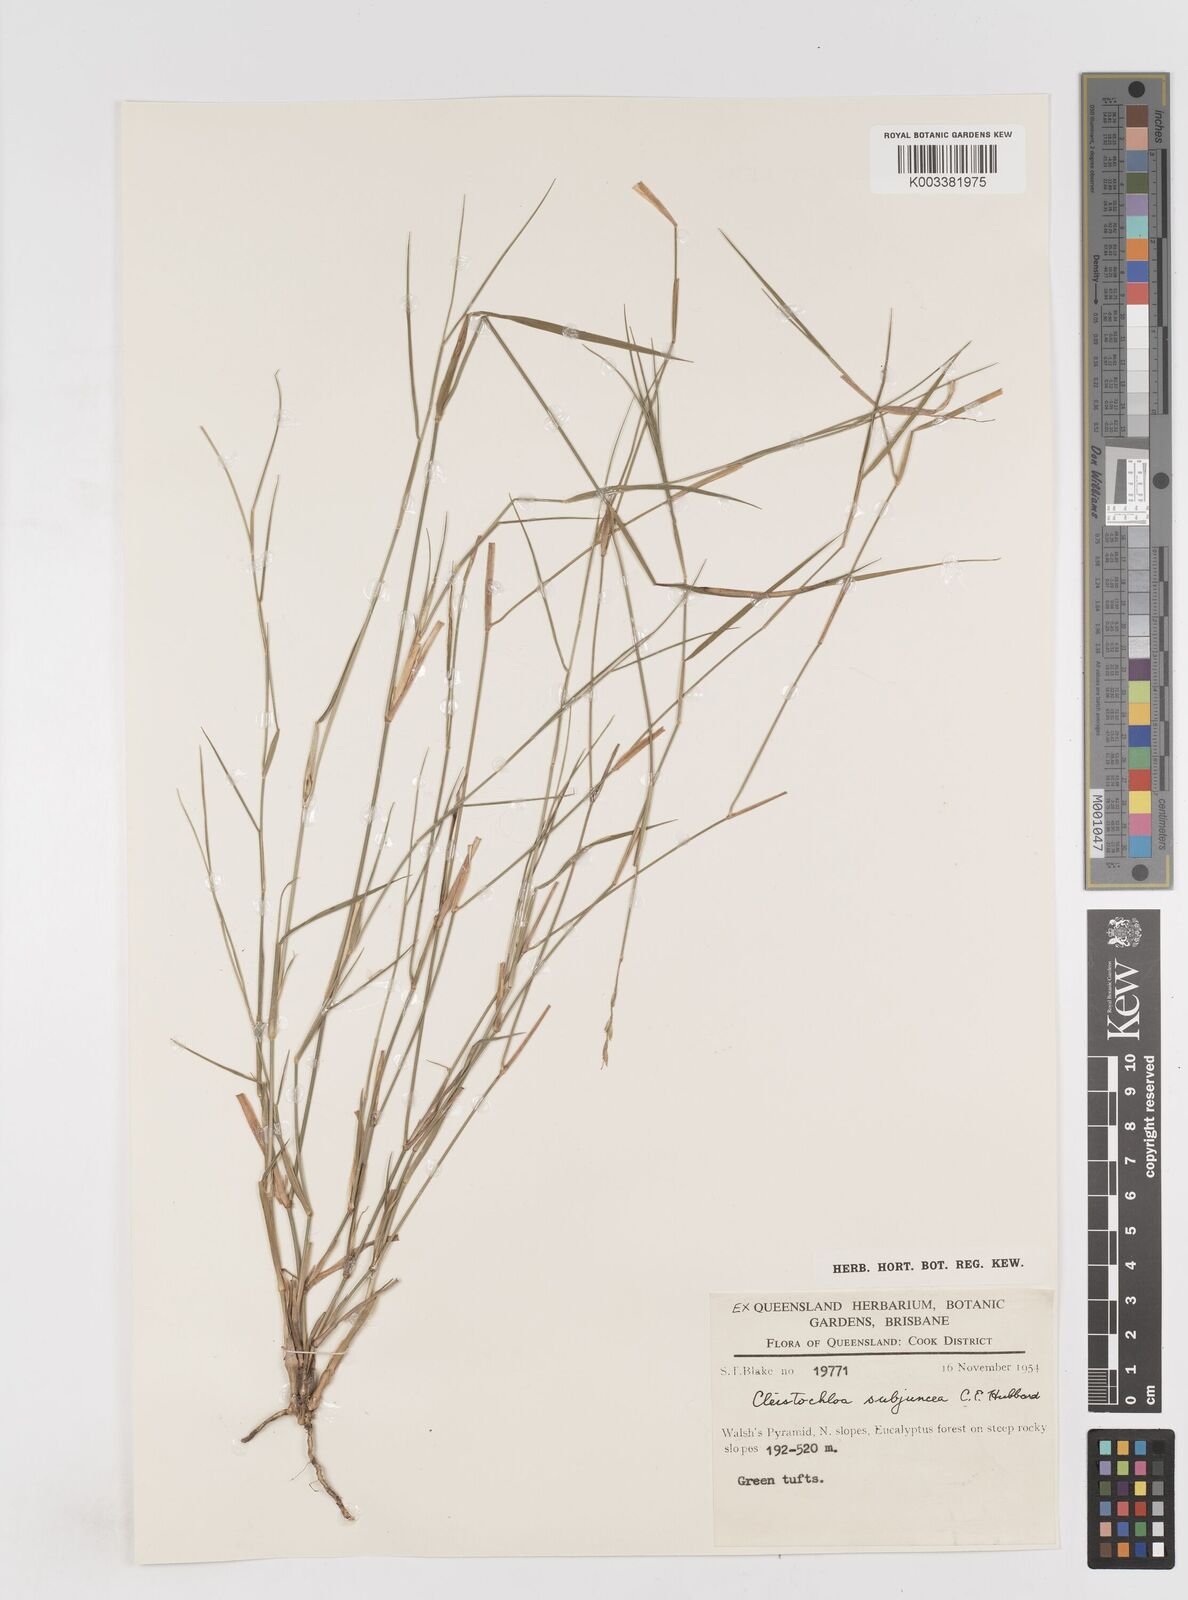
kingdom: Plantae
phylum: Tracheophyta
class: Liliopsida
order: Poales
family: Poaceae
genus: Cleistochloa
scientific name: Cleistochloa subjuncea
